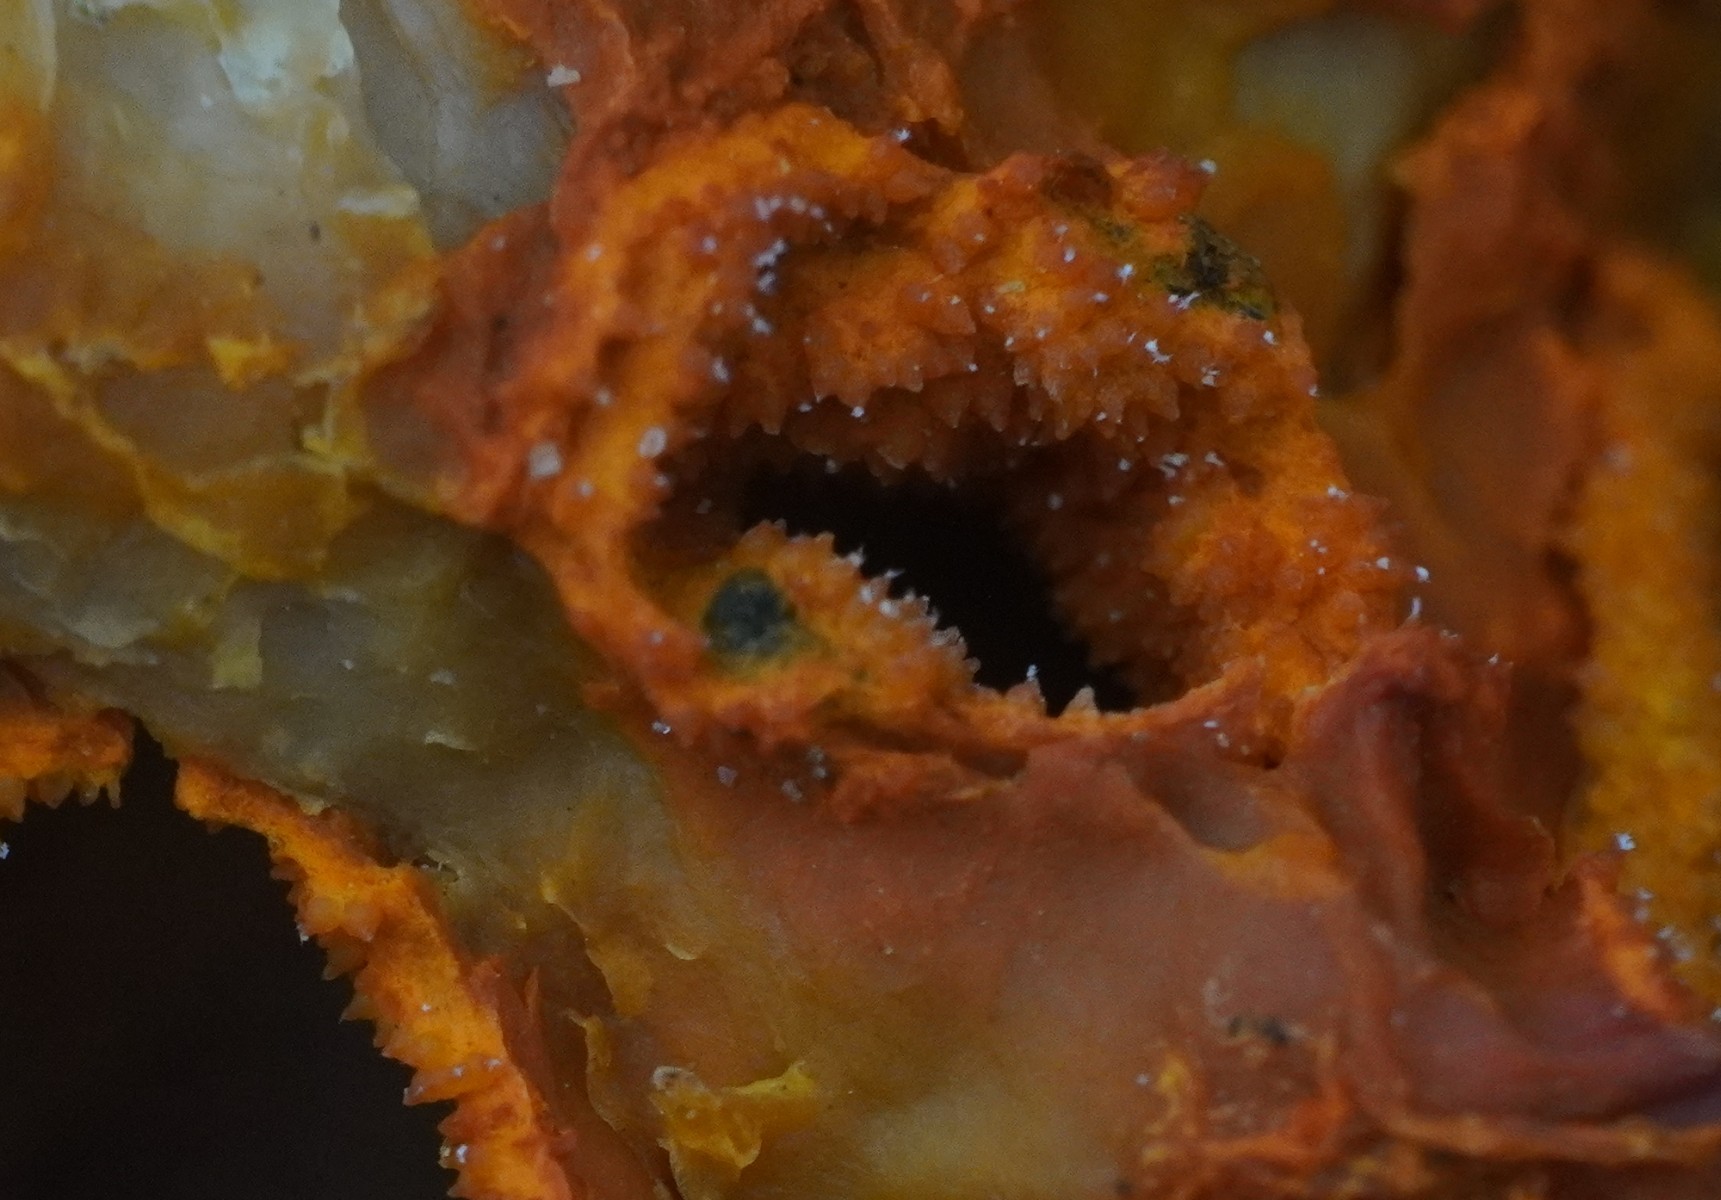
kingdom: Fungi
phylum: Ascomycota
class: Sordariomycetes
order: Hypocreales
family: Hypocreaceae
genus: Hypomyces
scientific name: Hypomyces aurantius
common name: almindelig snylteskorpe
